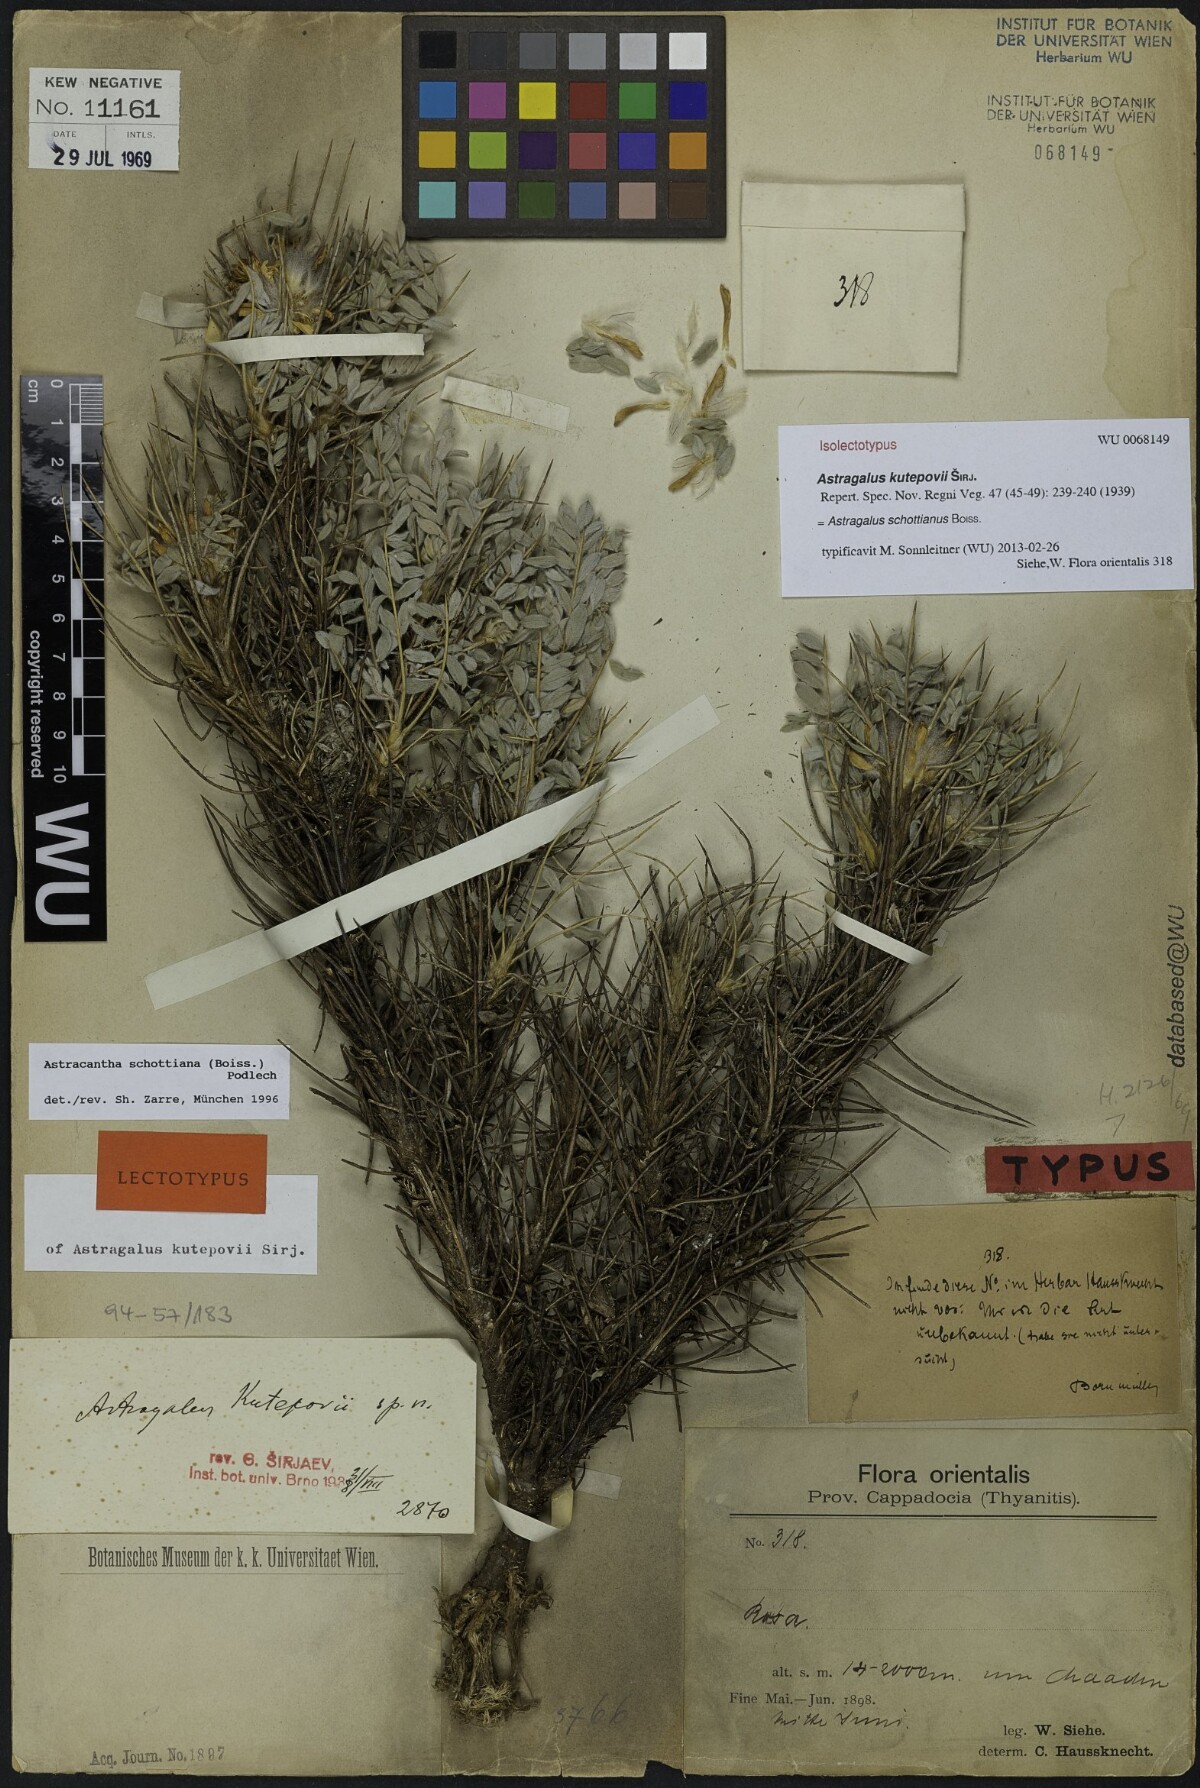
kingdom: Plantae
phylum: Tracheophyta
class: Magnoliopsida
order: Fabales
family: Fabaceae
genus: Astragalus
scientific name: Astragalus schottianus
